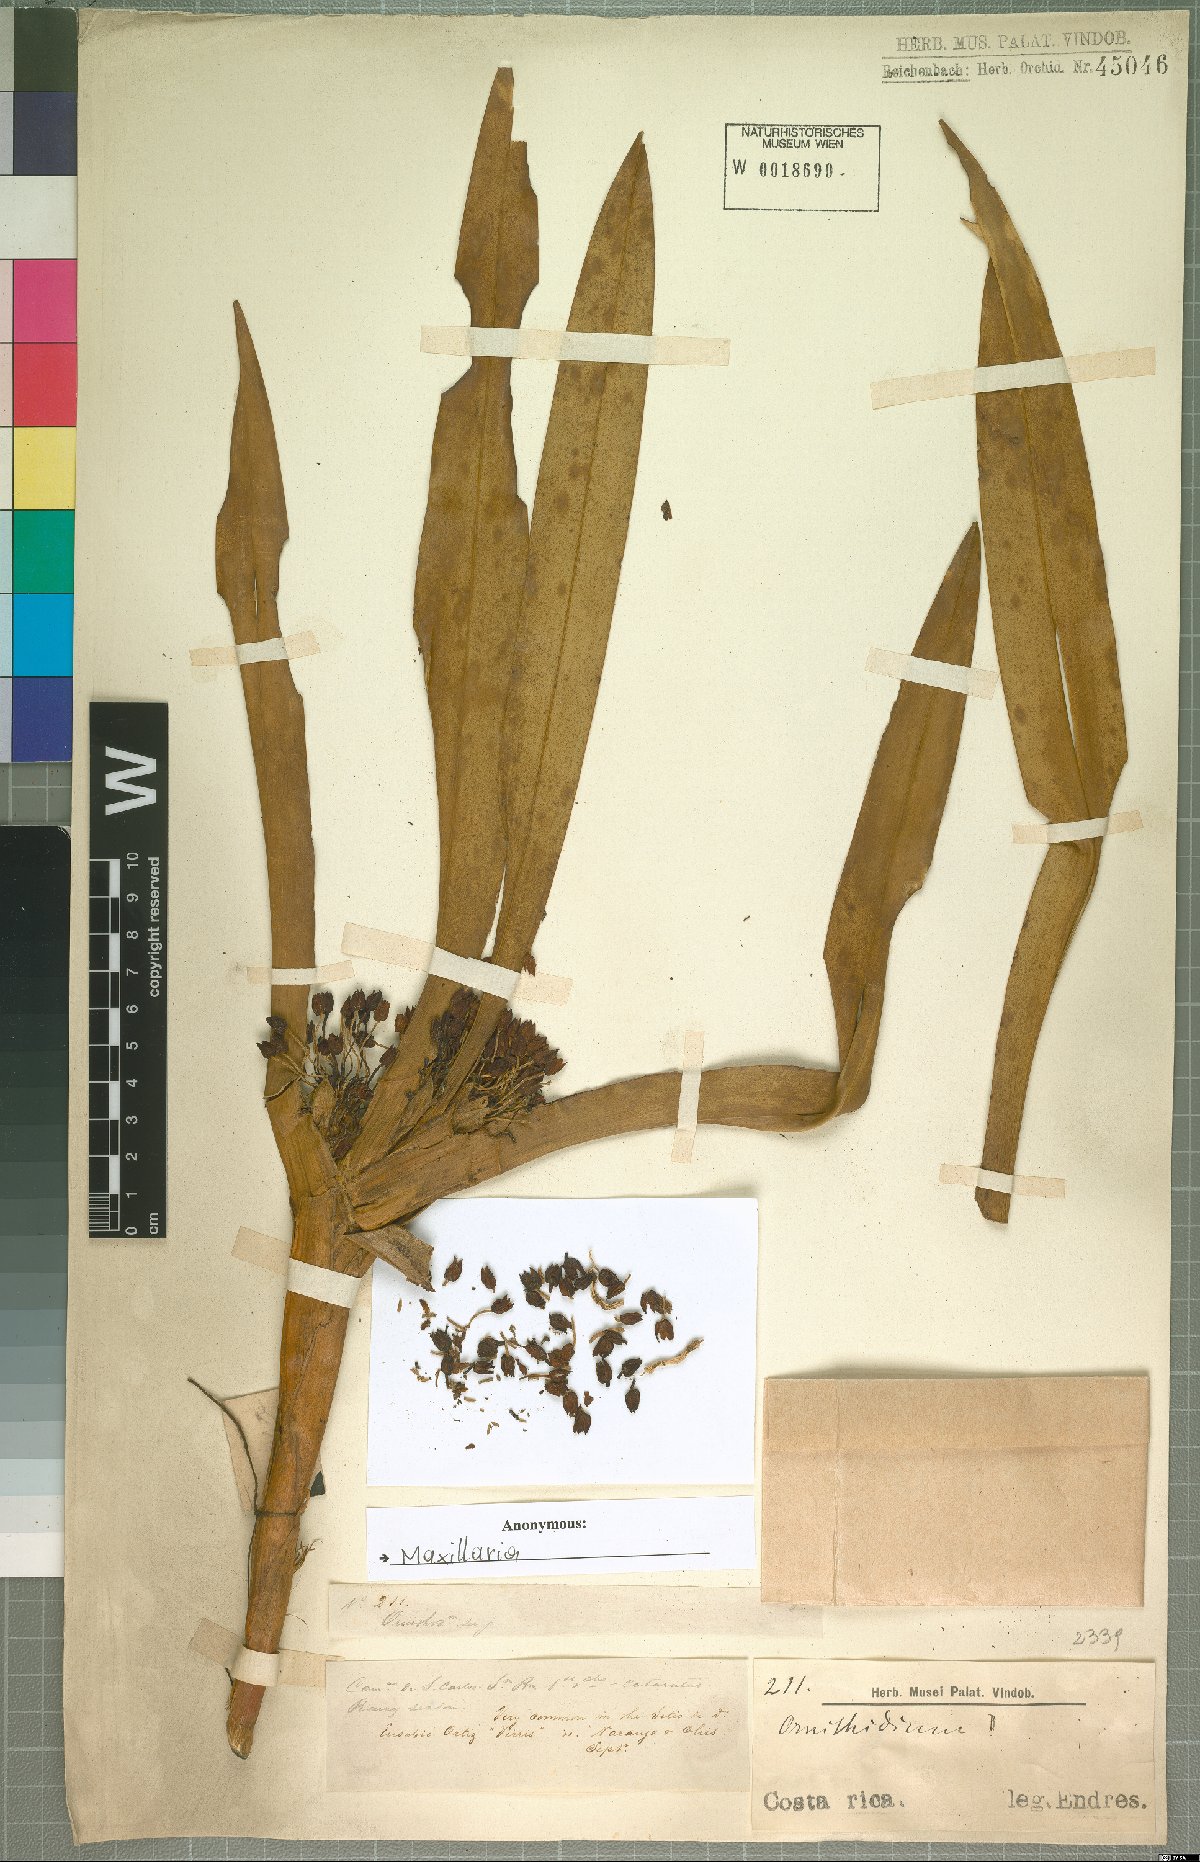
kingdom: Plantae
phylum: Tracheophyta
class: Liliopsida
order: Asparagales
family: Orchidaceae
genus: Maxillaria
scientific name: Maxillaria
